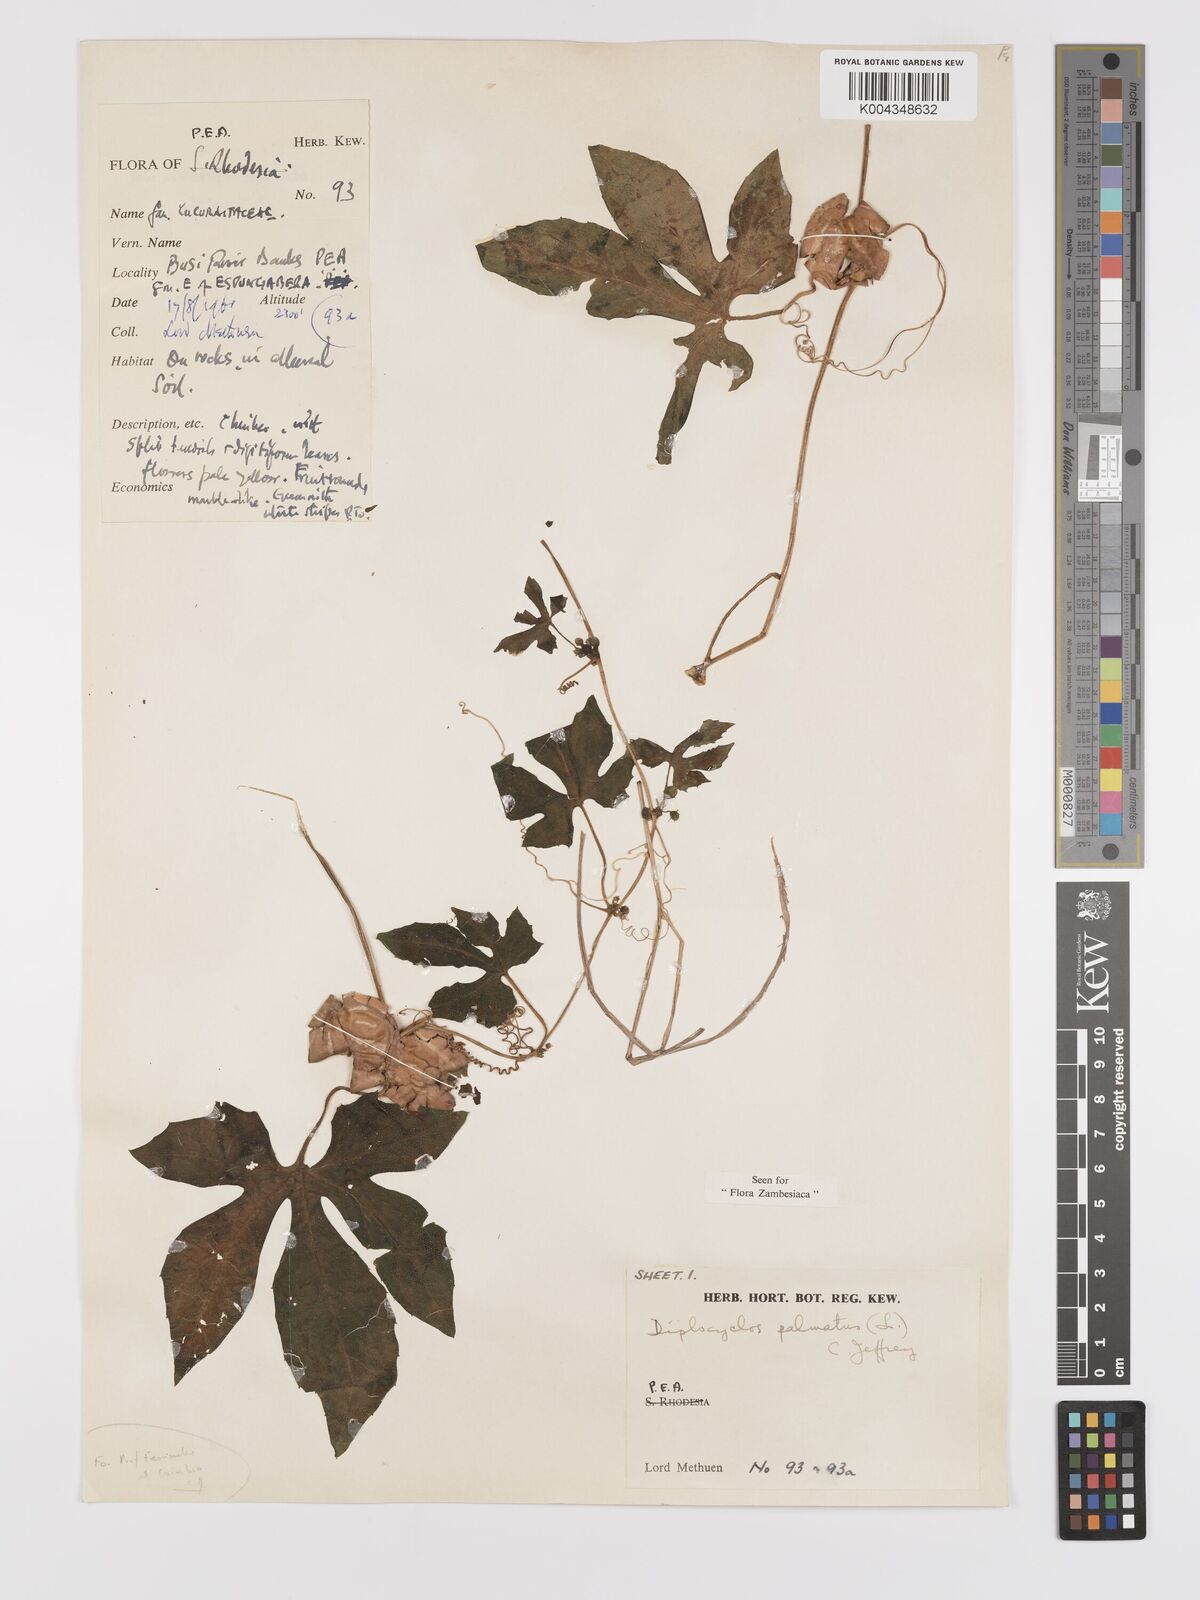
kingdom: Plantae
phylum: Tracheophyta
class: Magnoliopsida
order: Cucurbitales
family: Cucurbitaceae
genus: Diplocyclos
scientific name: Diplocyclos palmatus
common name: Striped-cucumber
